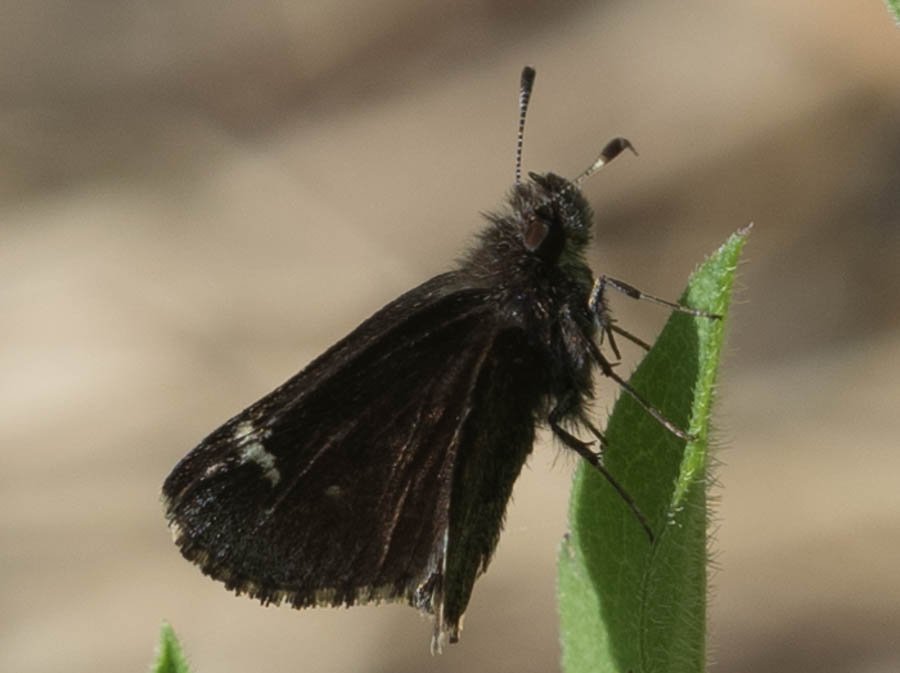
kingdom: Animalia
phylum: Arthropoda
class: Insecta
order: Lepidoptera
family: Hesperiidae
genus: Mastor
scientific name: Mastor vialis
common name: Common Roadside-Skipper
